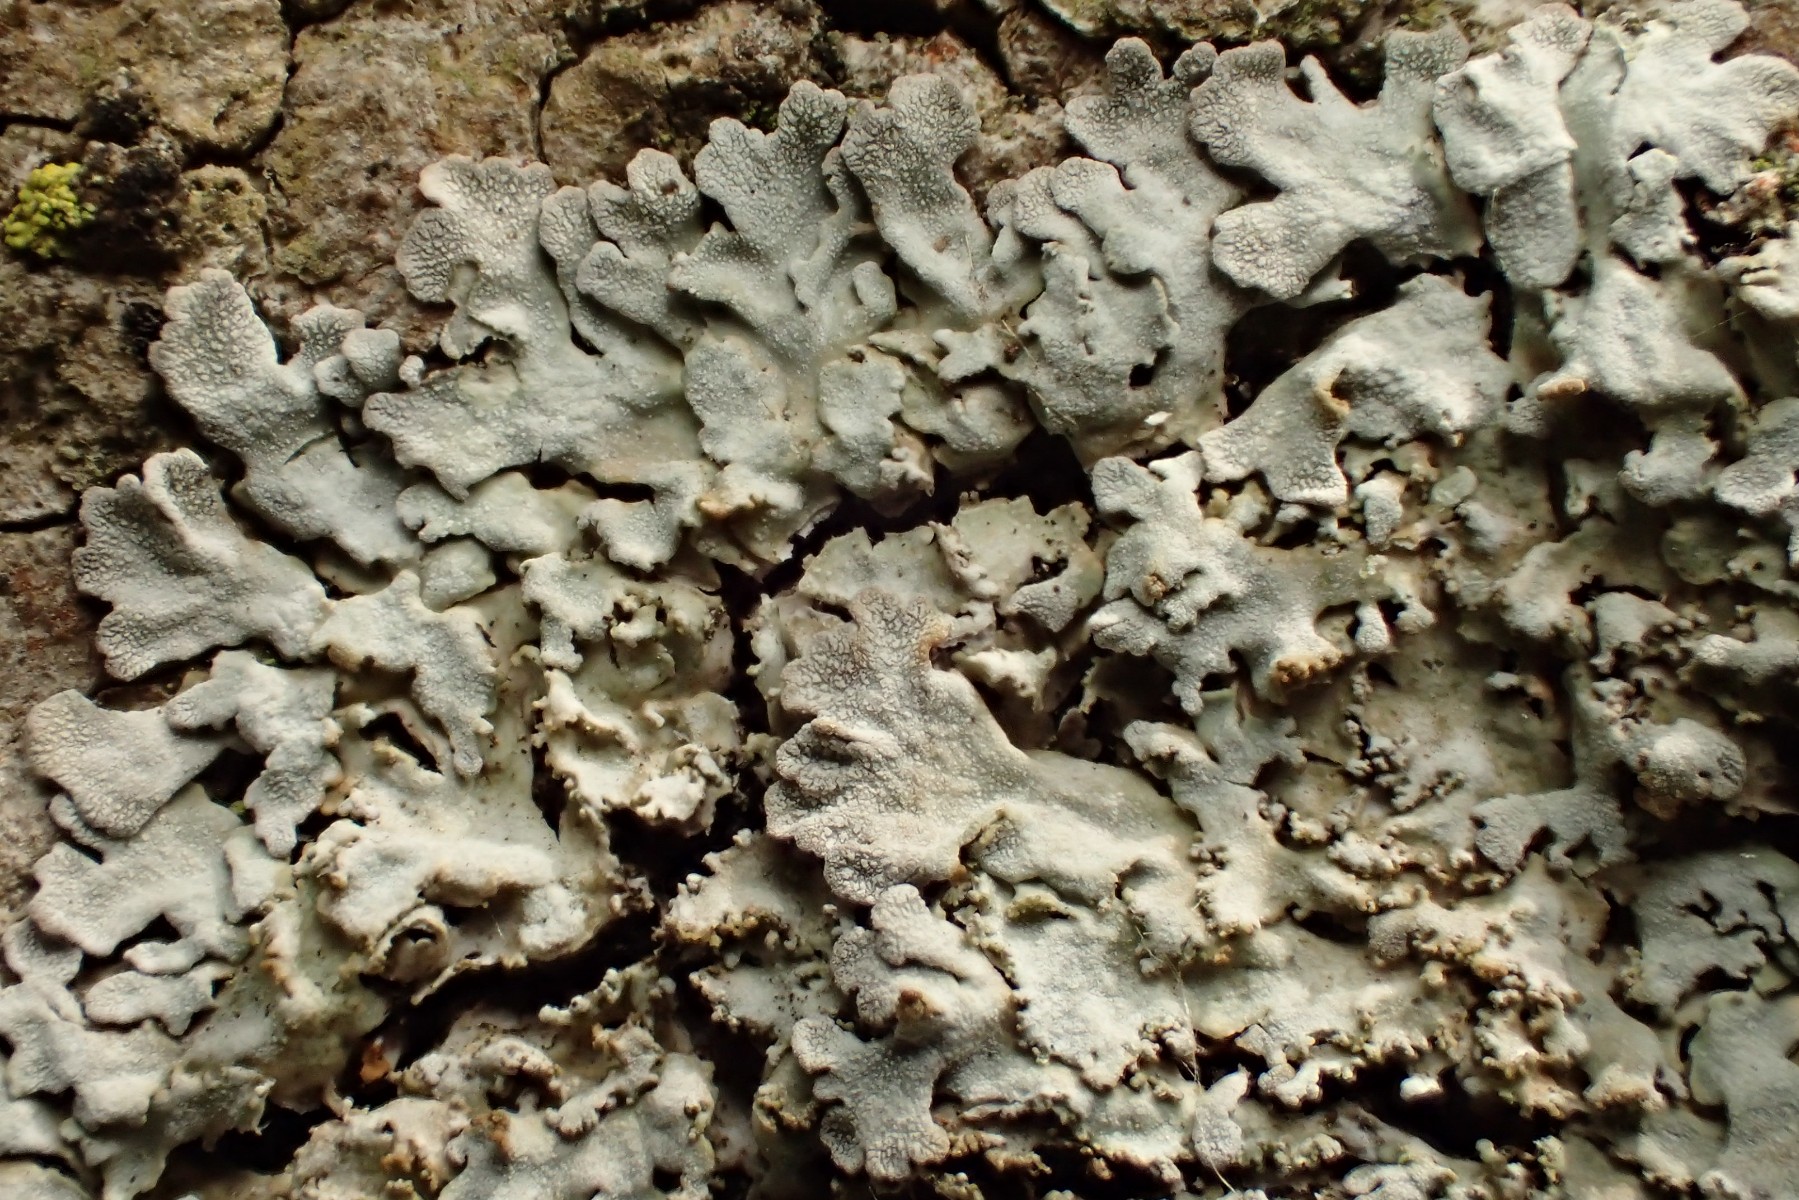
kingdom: Fungi
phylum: Ascomycota
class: Lecanoromycetes
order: Caliciales
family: Physciaceae
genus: Poeltonia
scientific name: Poeltonia grisea
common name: hvidgrå dugrosetlav
